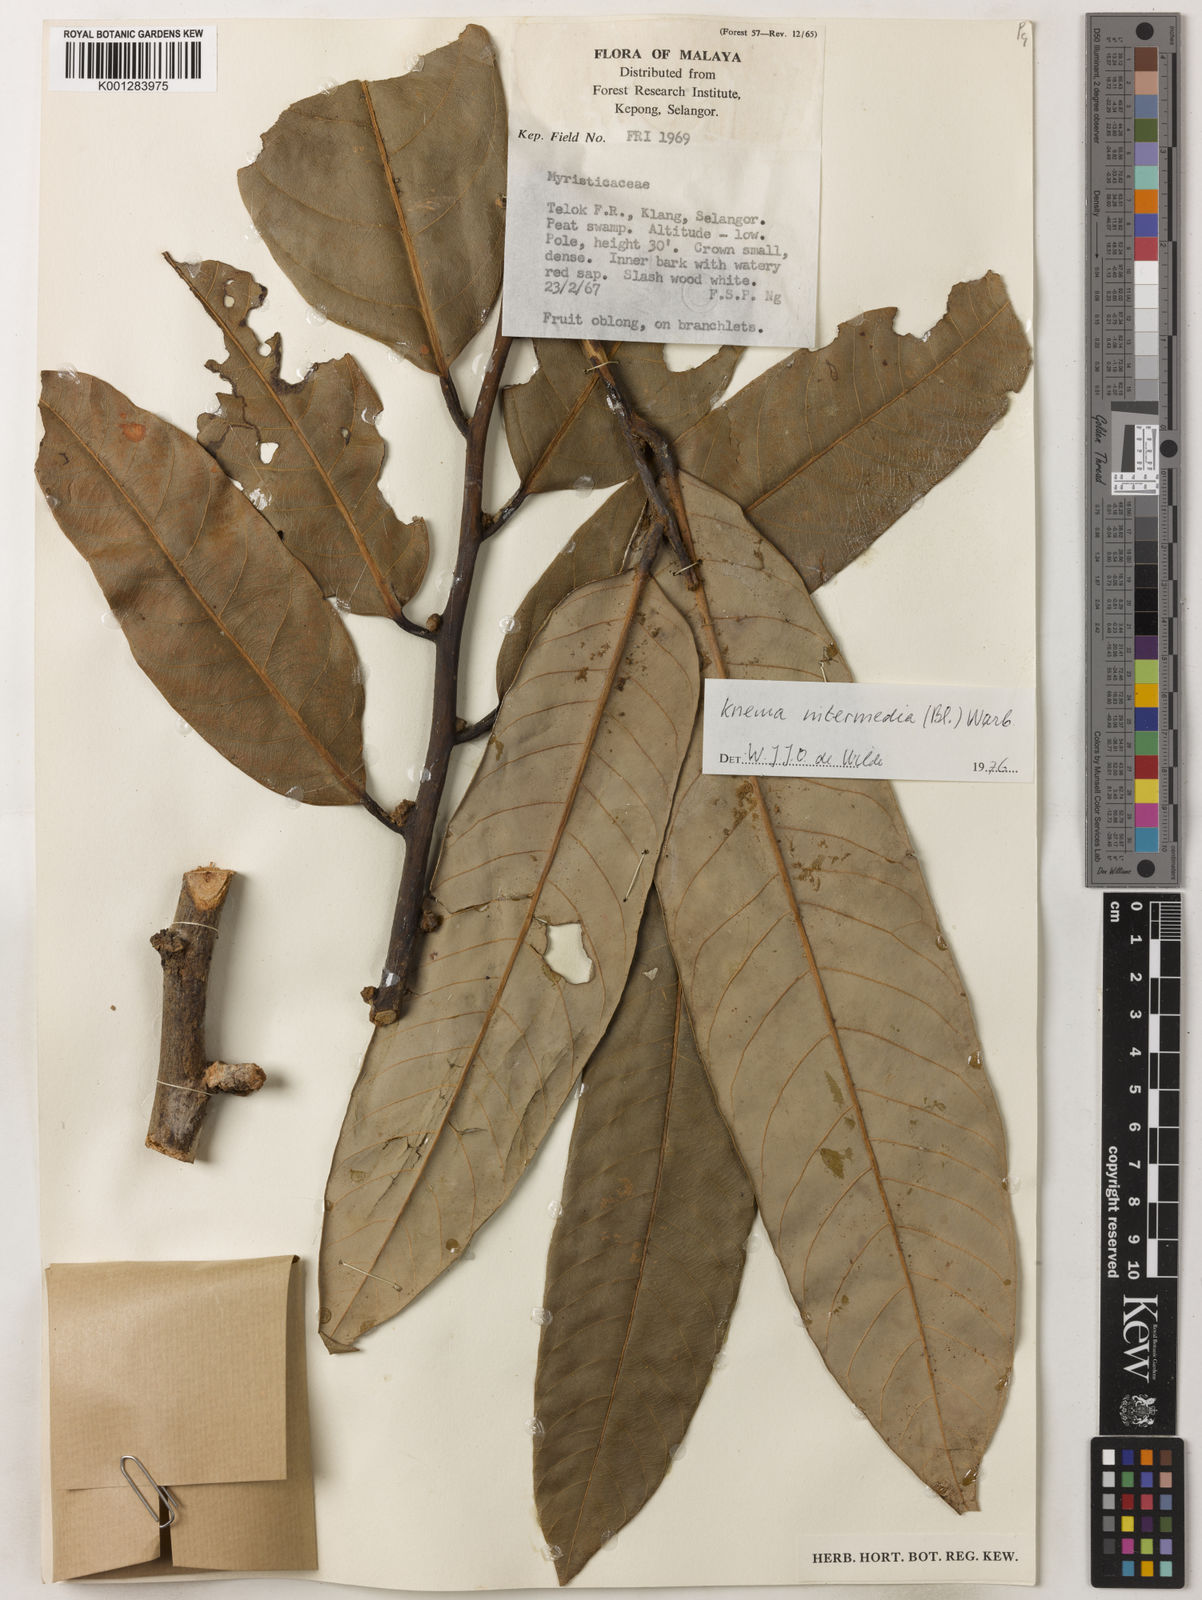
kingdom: Plantae
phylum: Tracheophyta
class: Magnoliopsida
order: Magnoliales
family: Myristicaceae
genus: Knema
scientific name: Knema intermedia
